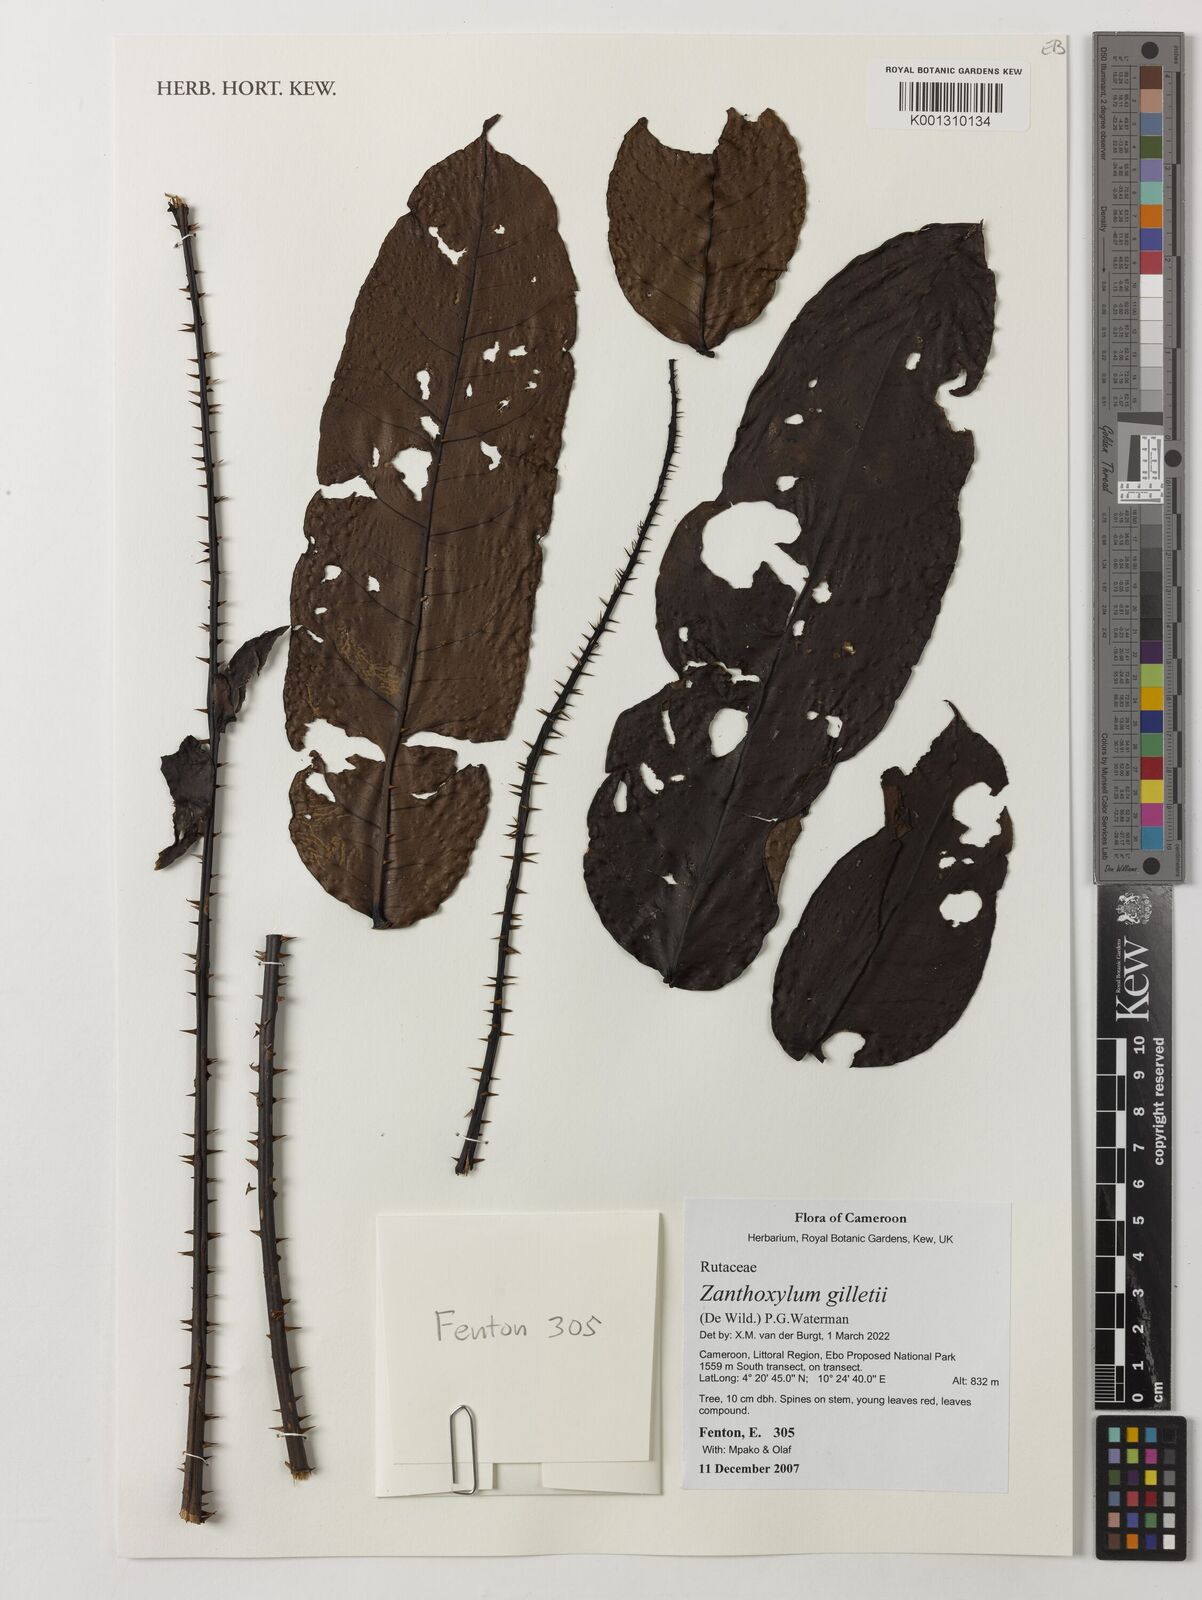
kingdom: Plantae
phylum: Tracheophyta
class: Magnoliopsida
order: Sapindales
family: Rutaceae
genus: Zanthoxylum
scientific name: Zanthoxylum gilletii
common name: African satinwood
